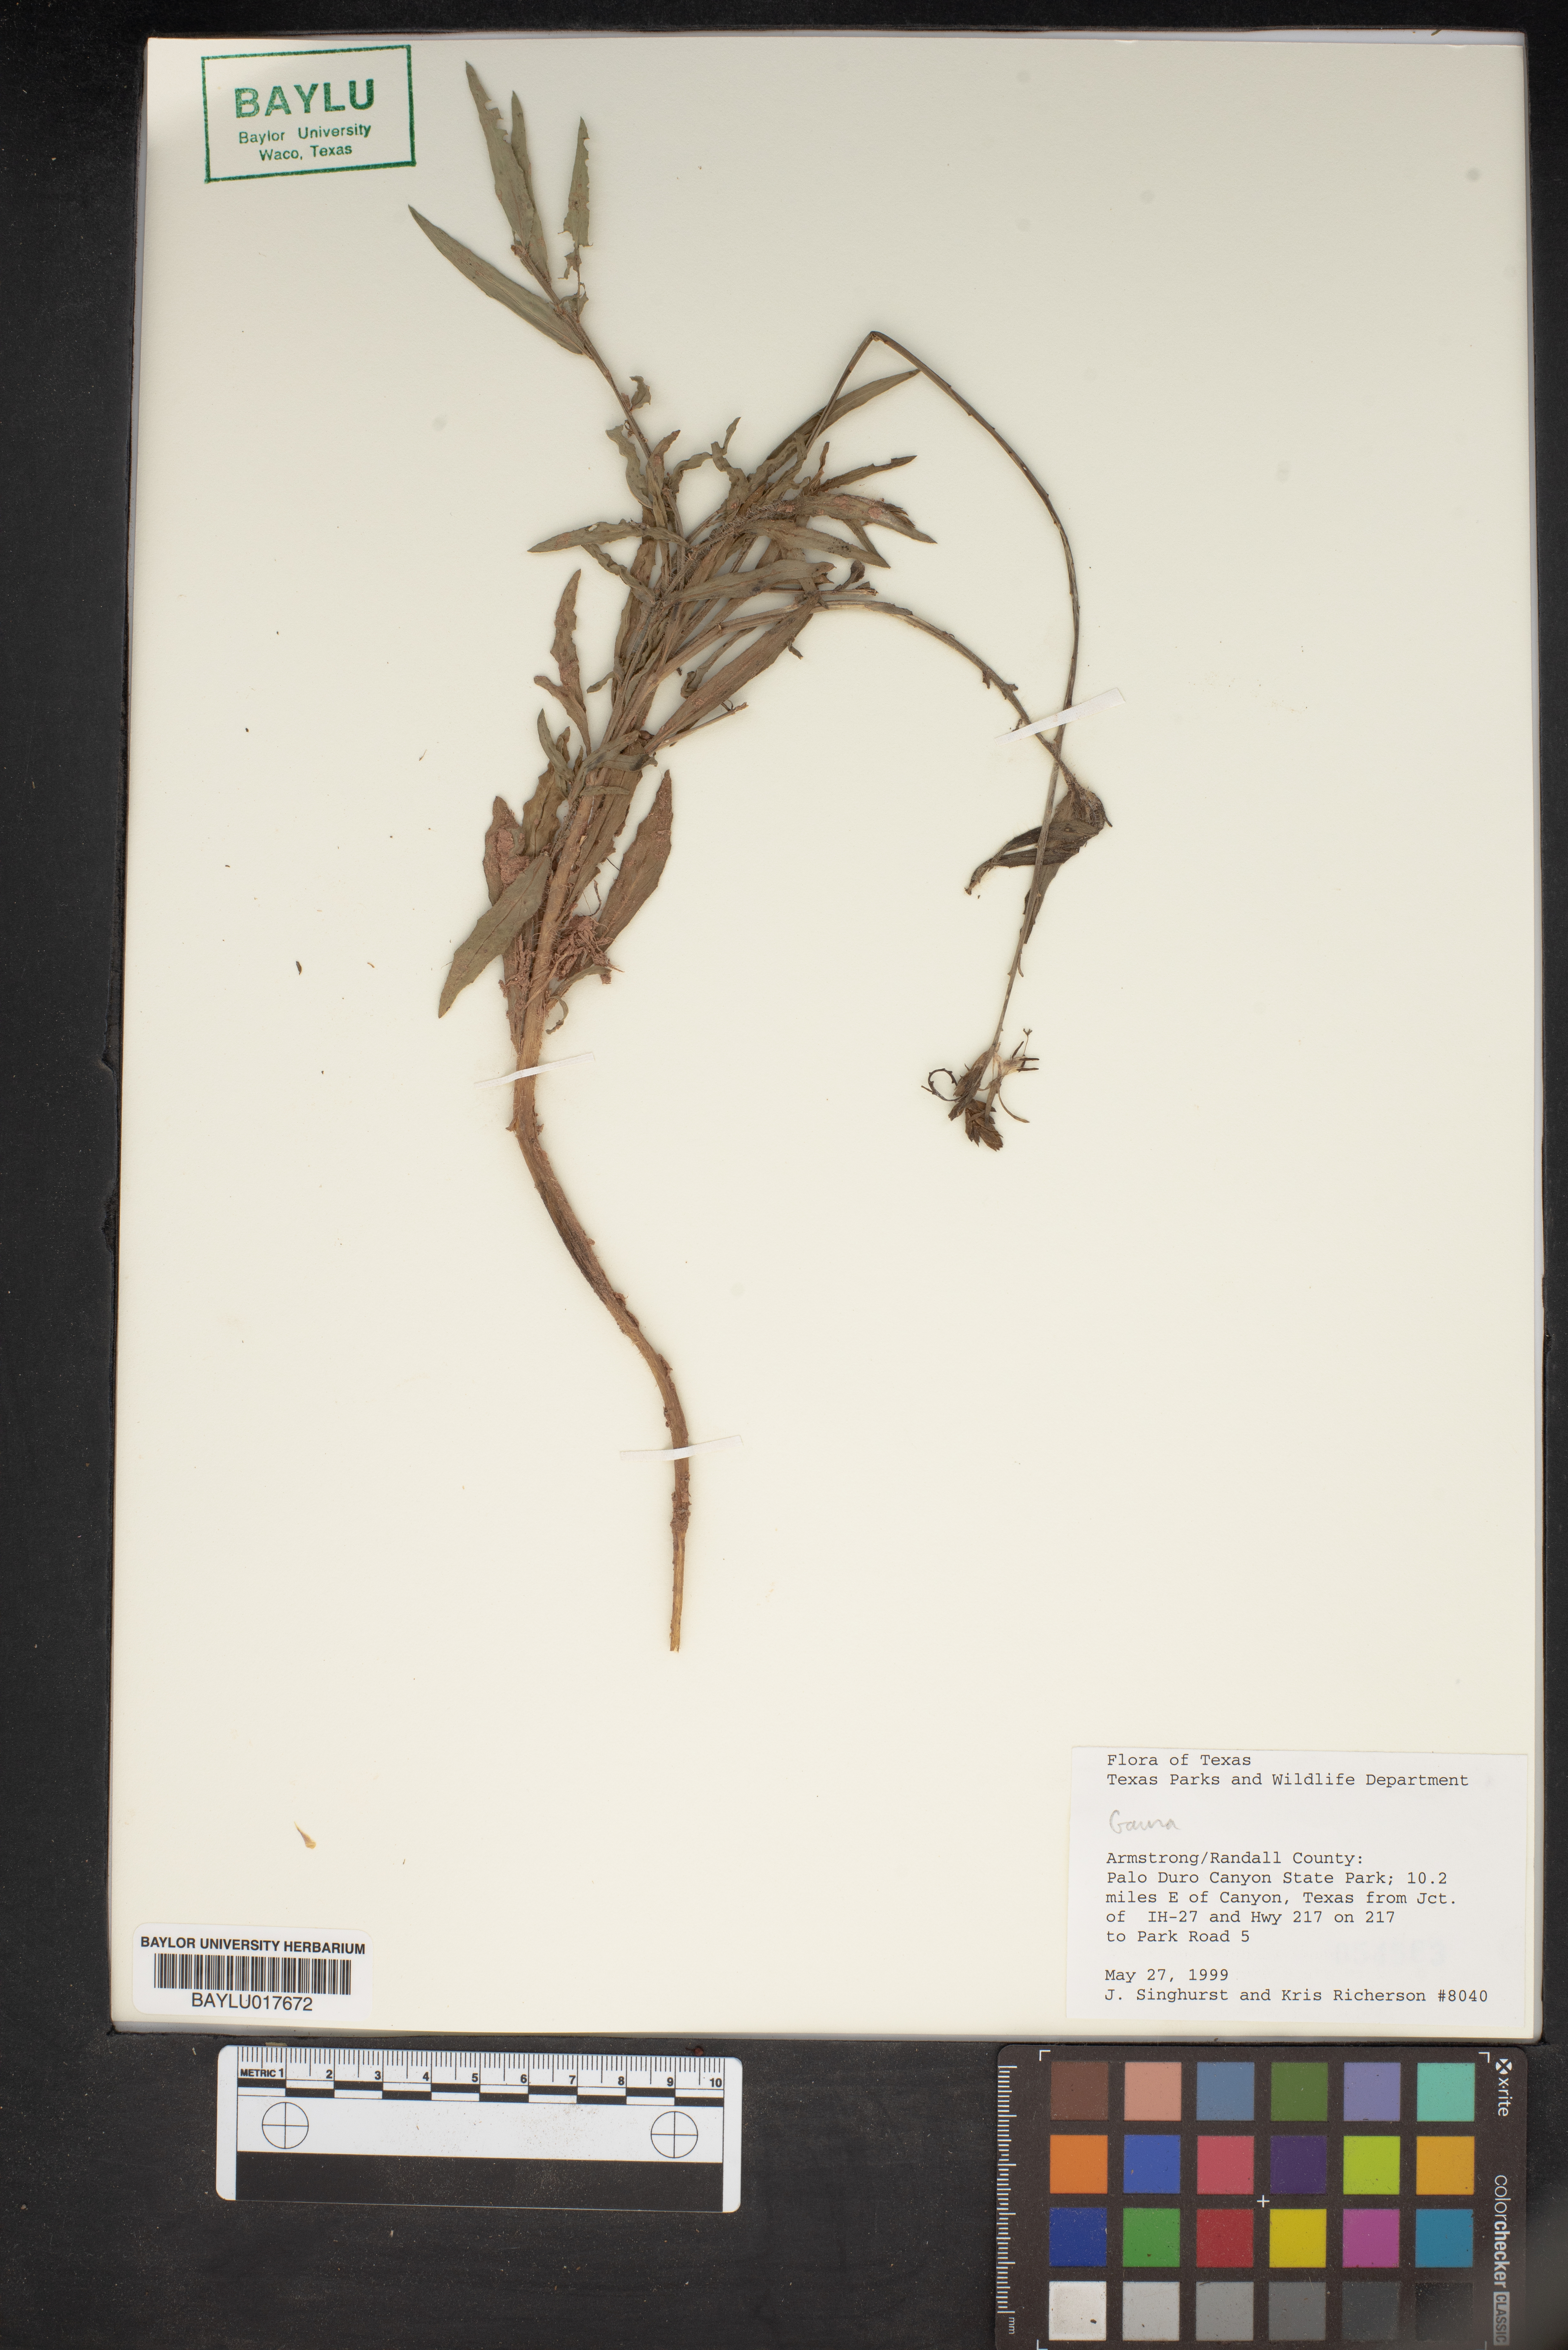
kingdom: Plantae
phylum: Tracheophyta
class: Magnoliopsida
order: Myrtales
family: Onagraceae
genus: Oenothera
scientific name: Oenothera
